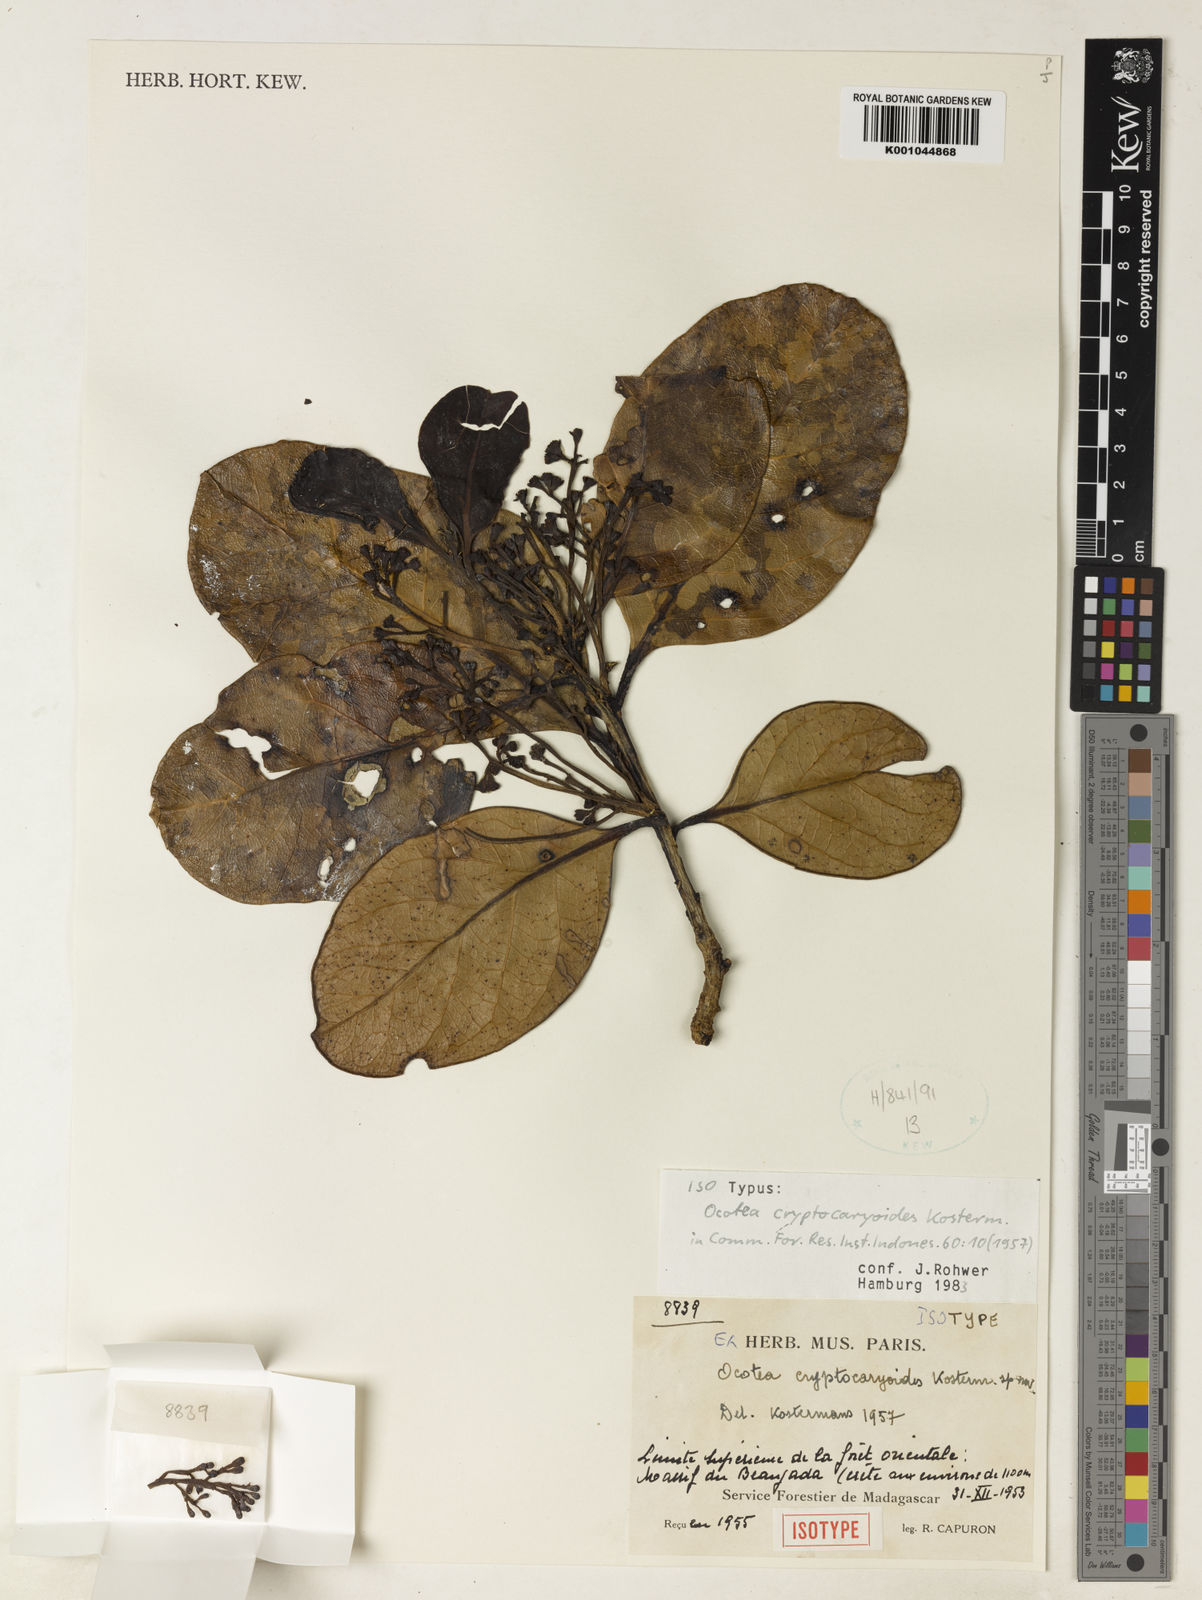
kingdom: Plantae
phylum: Tracheophyta
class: Magnoliopsida
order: Laurales
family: Lauraceae
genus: Ocotea
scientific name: Ocotea cryptocaryoides
